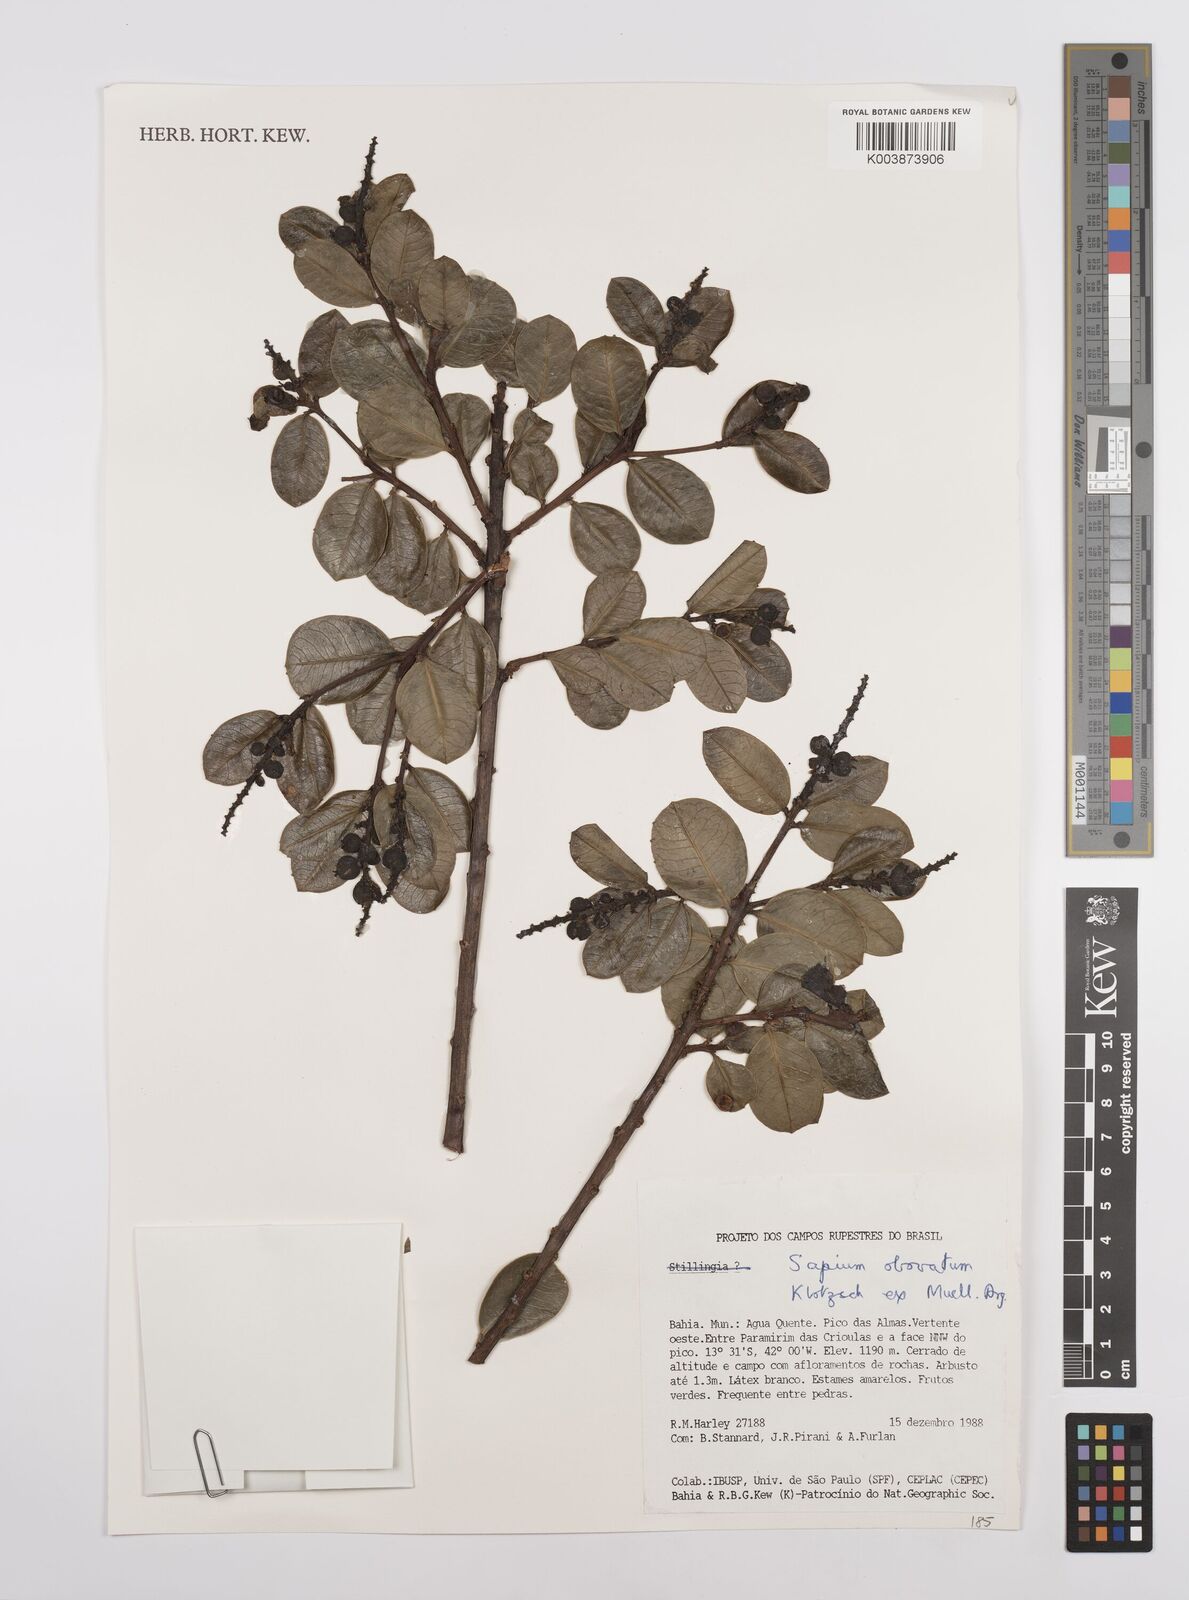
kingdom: Plantae
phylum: Tracheophyta
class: Magnoliopsida
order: Malpighiales
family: Euphorbiaceae
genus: Sapium
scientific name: Sapium obovatum
